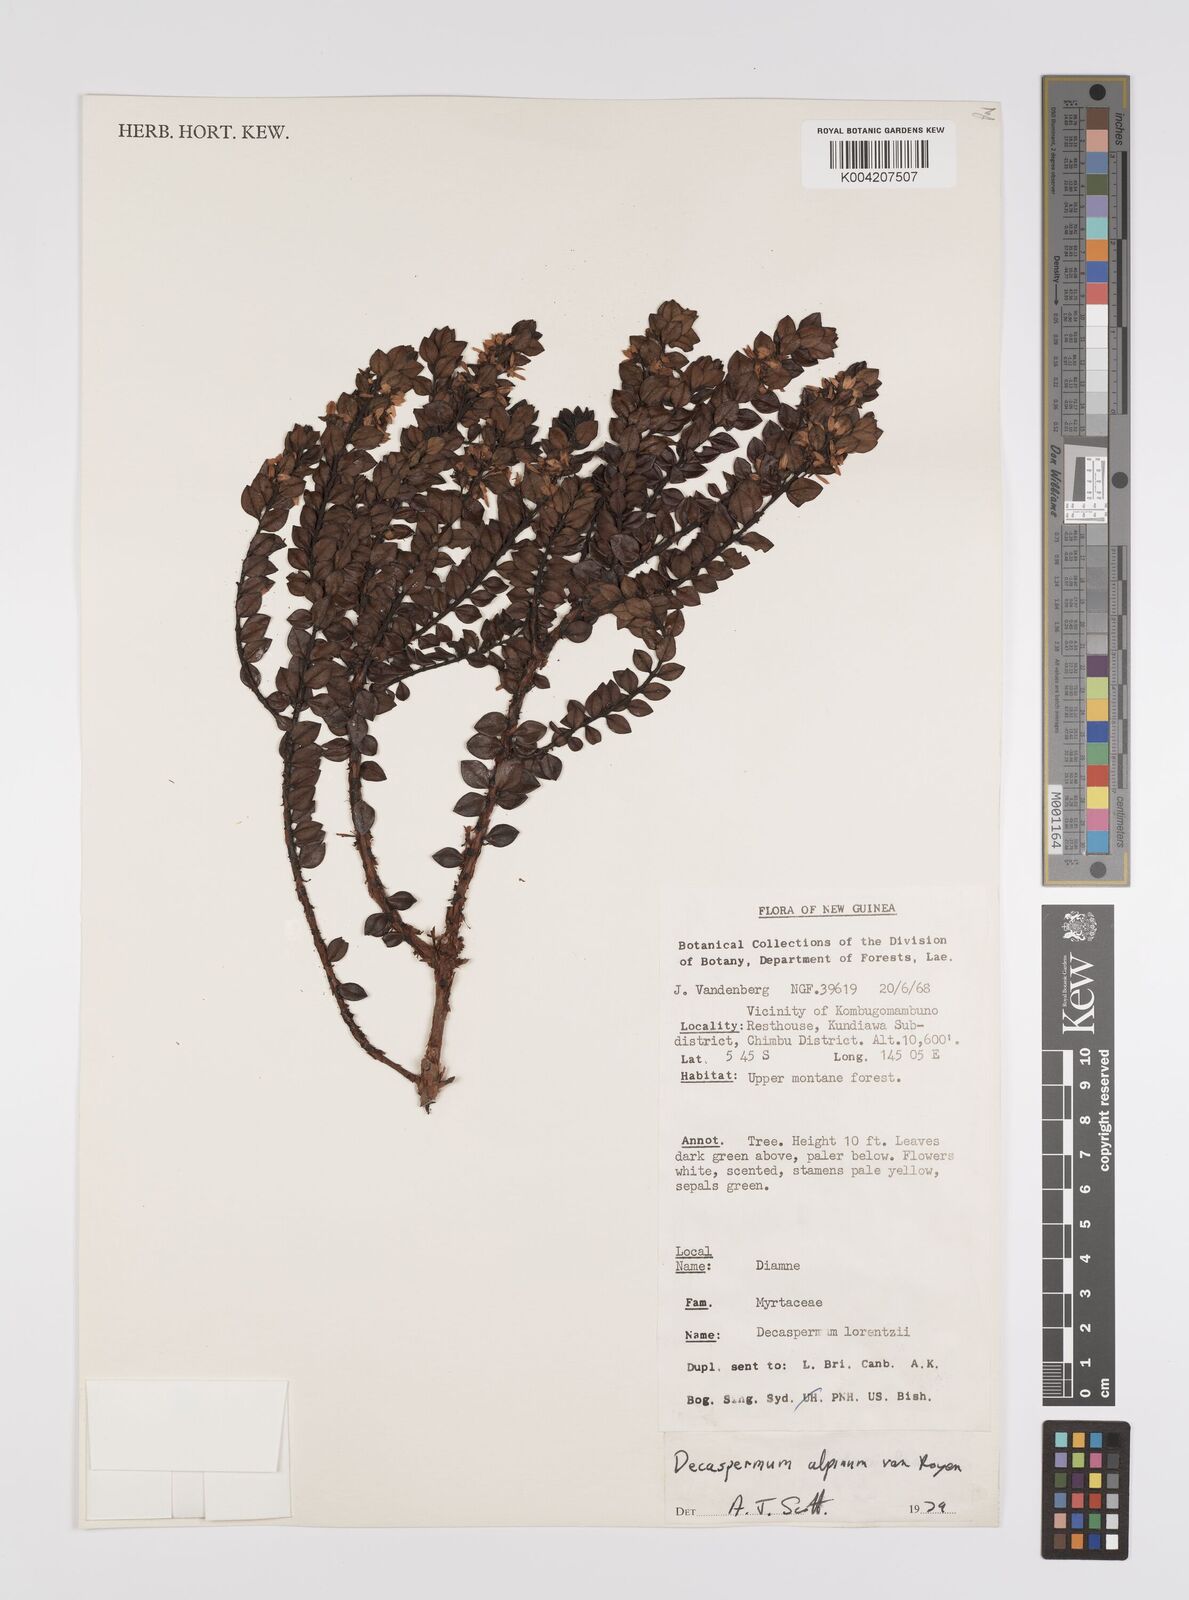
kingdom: Plantae
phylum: Tracheophyta
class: Magnoliopsida
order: Myrtales
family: Myrtaceae
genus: Decaspermum
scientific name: Decaspermum alpinum
